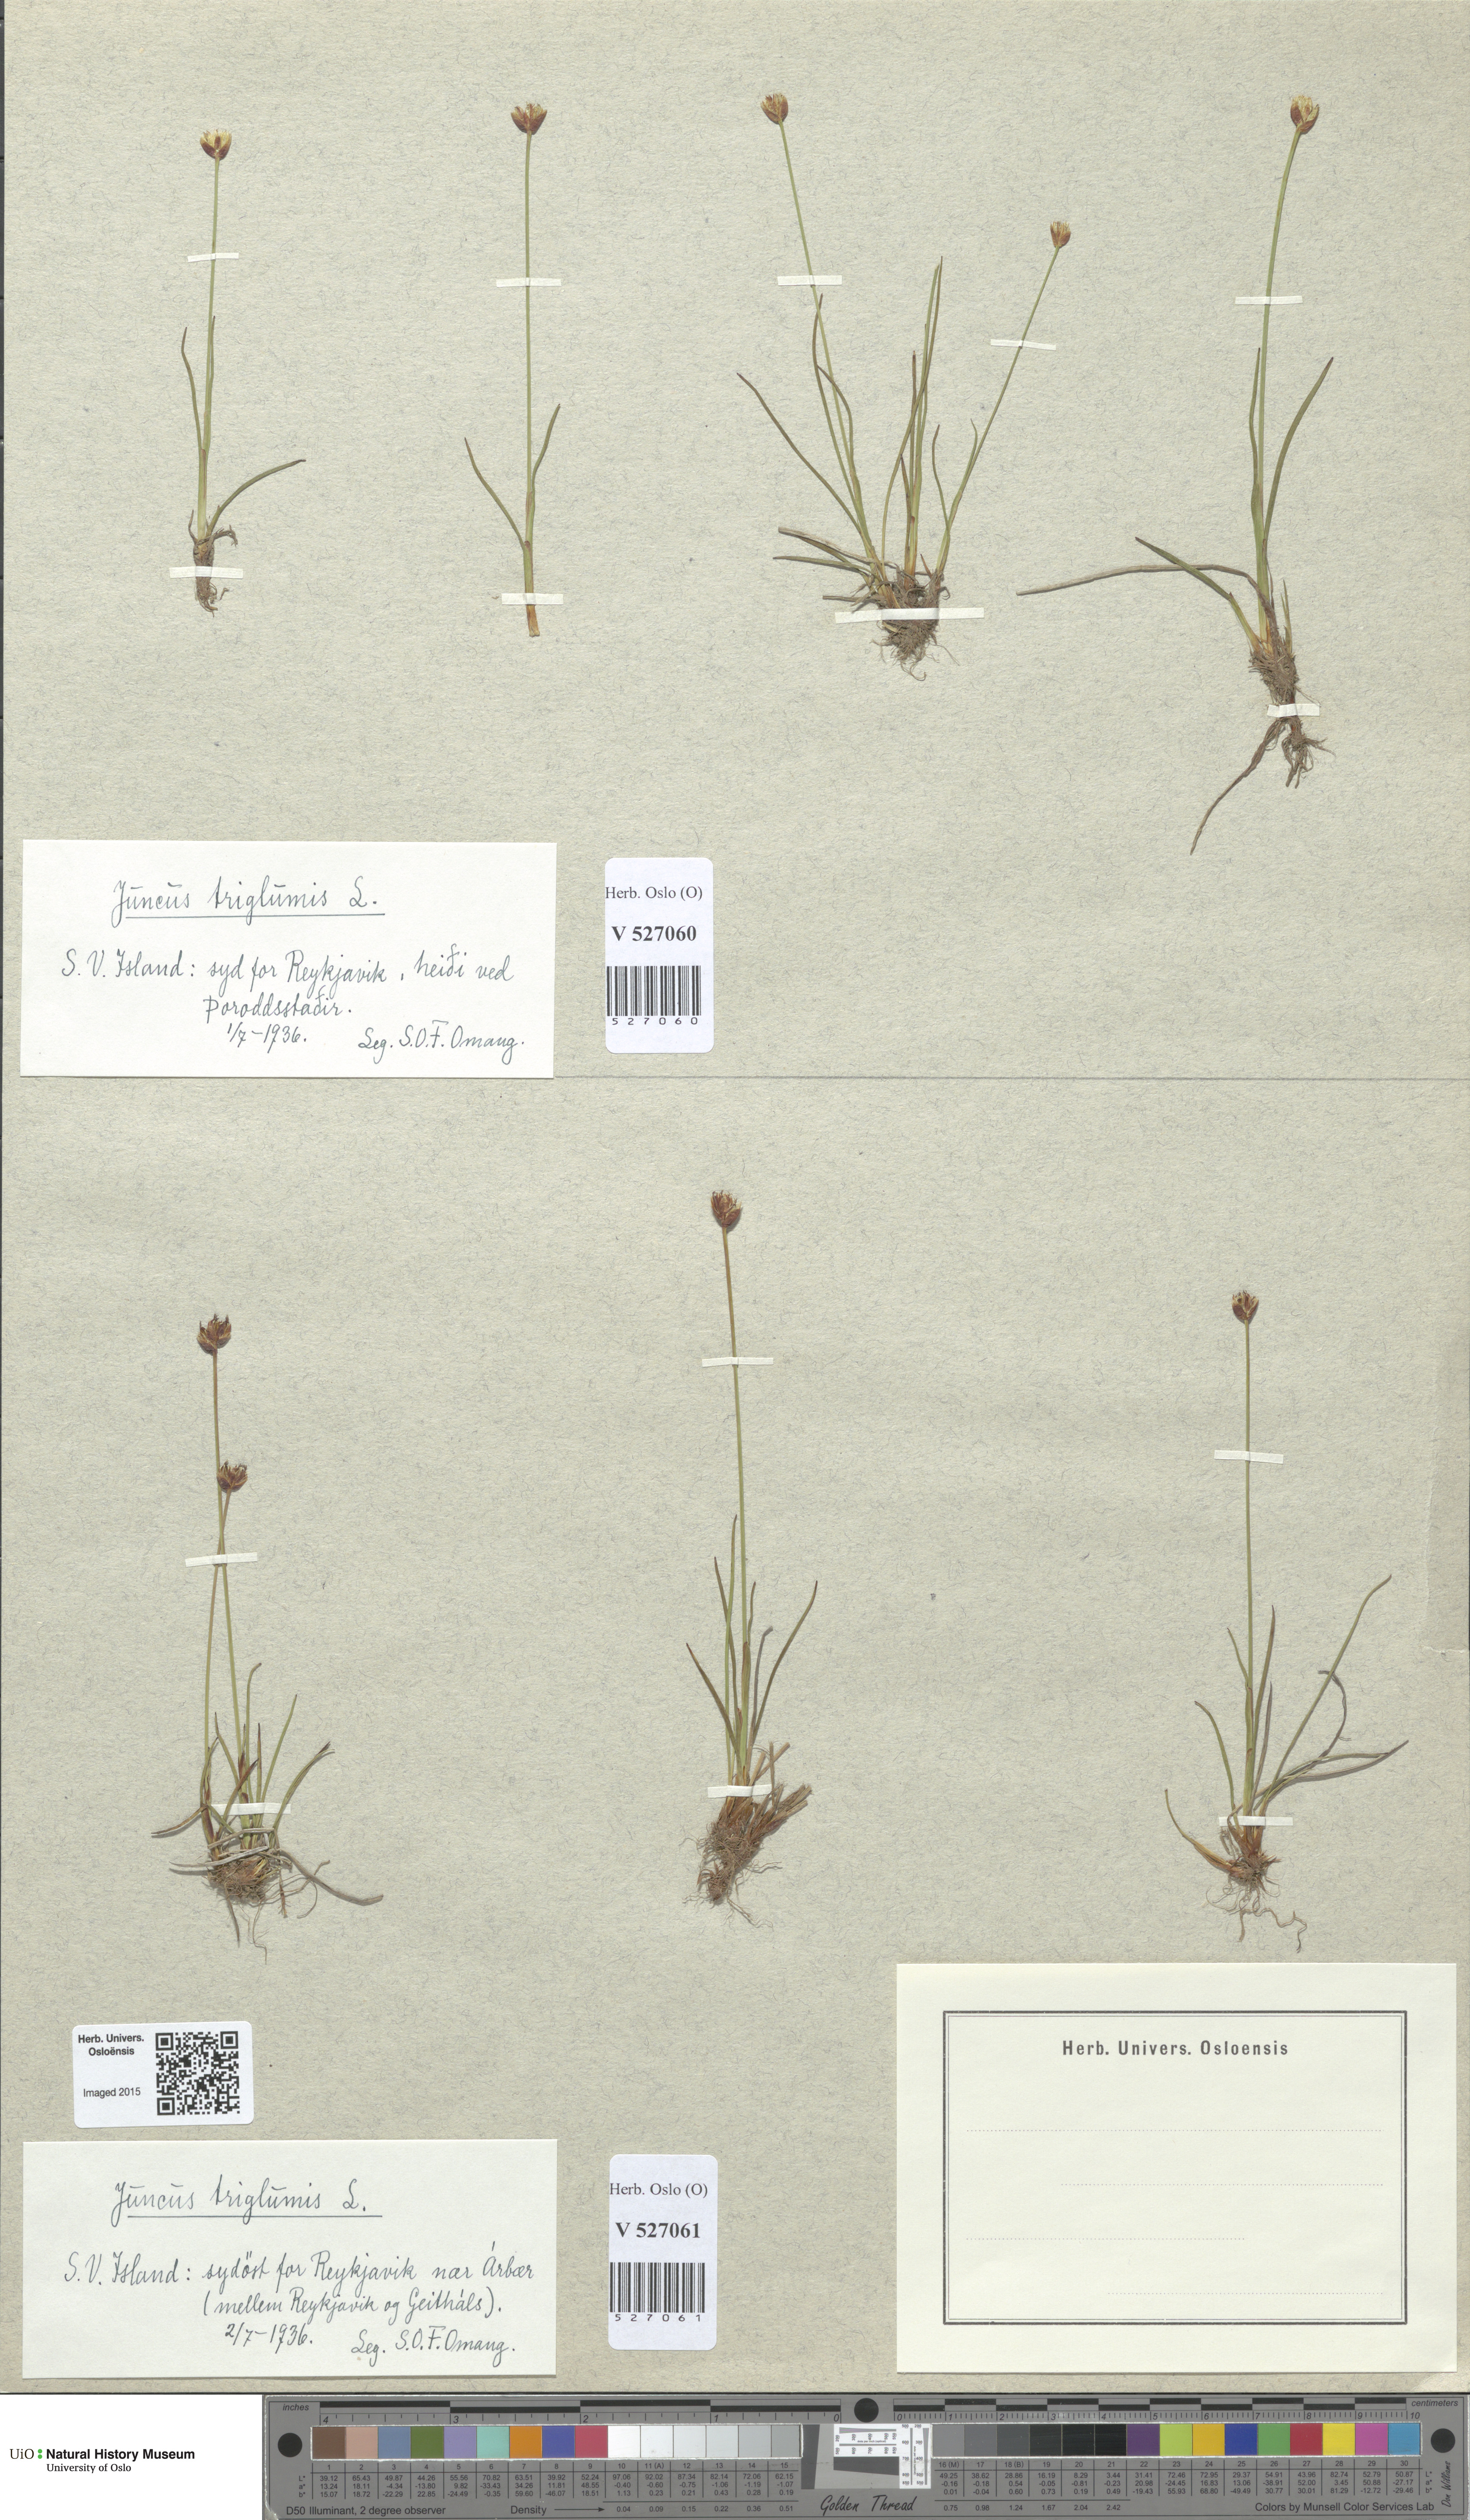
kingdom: Plantae
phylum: Tracheophyta
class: Liliopsida
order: Poales
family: Juncaceae
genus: Juncus
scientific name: Juncus triglumis
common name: Three-flowered rush
